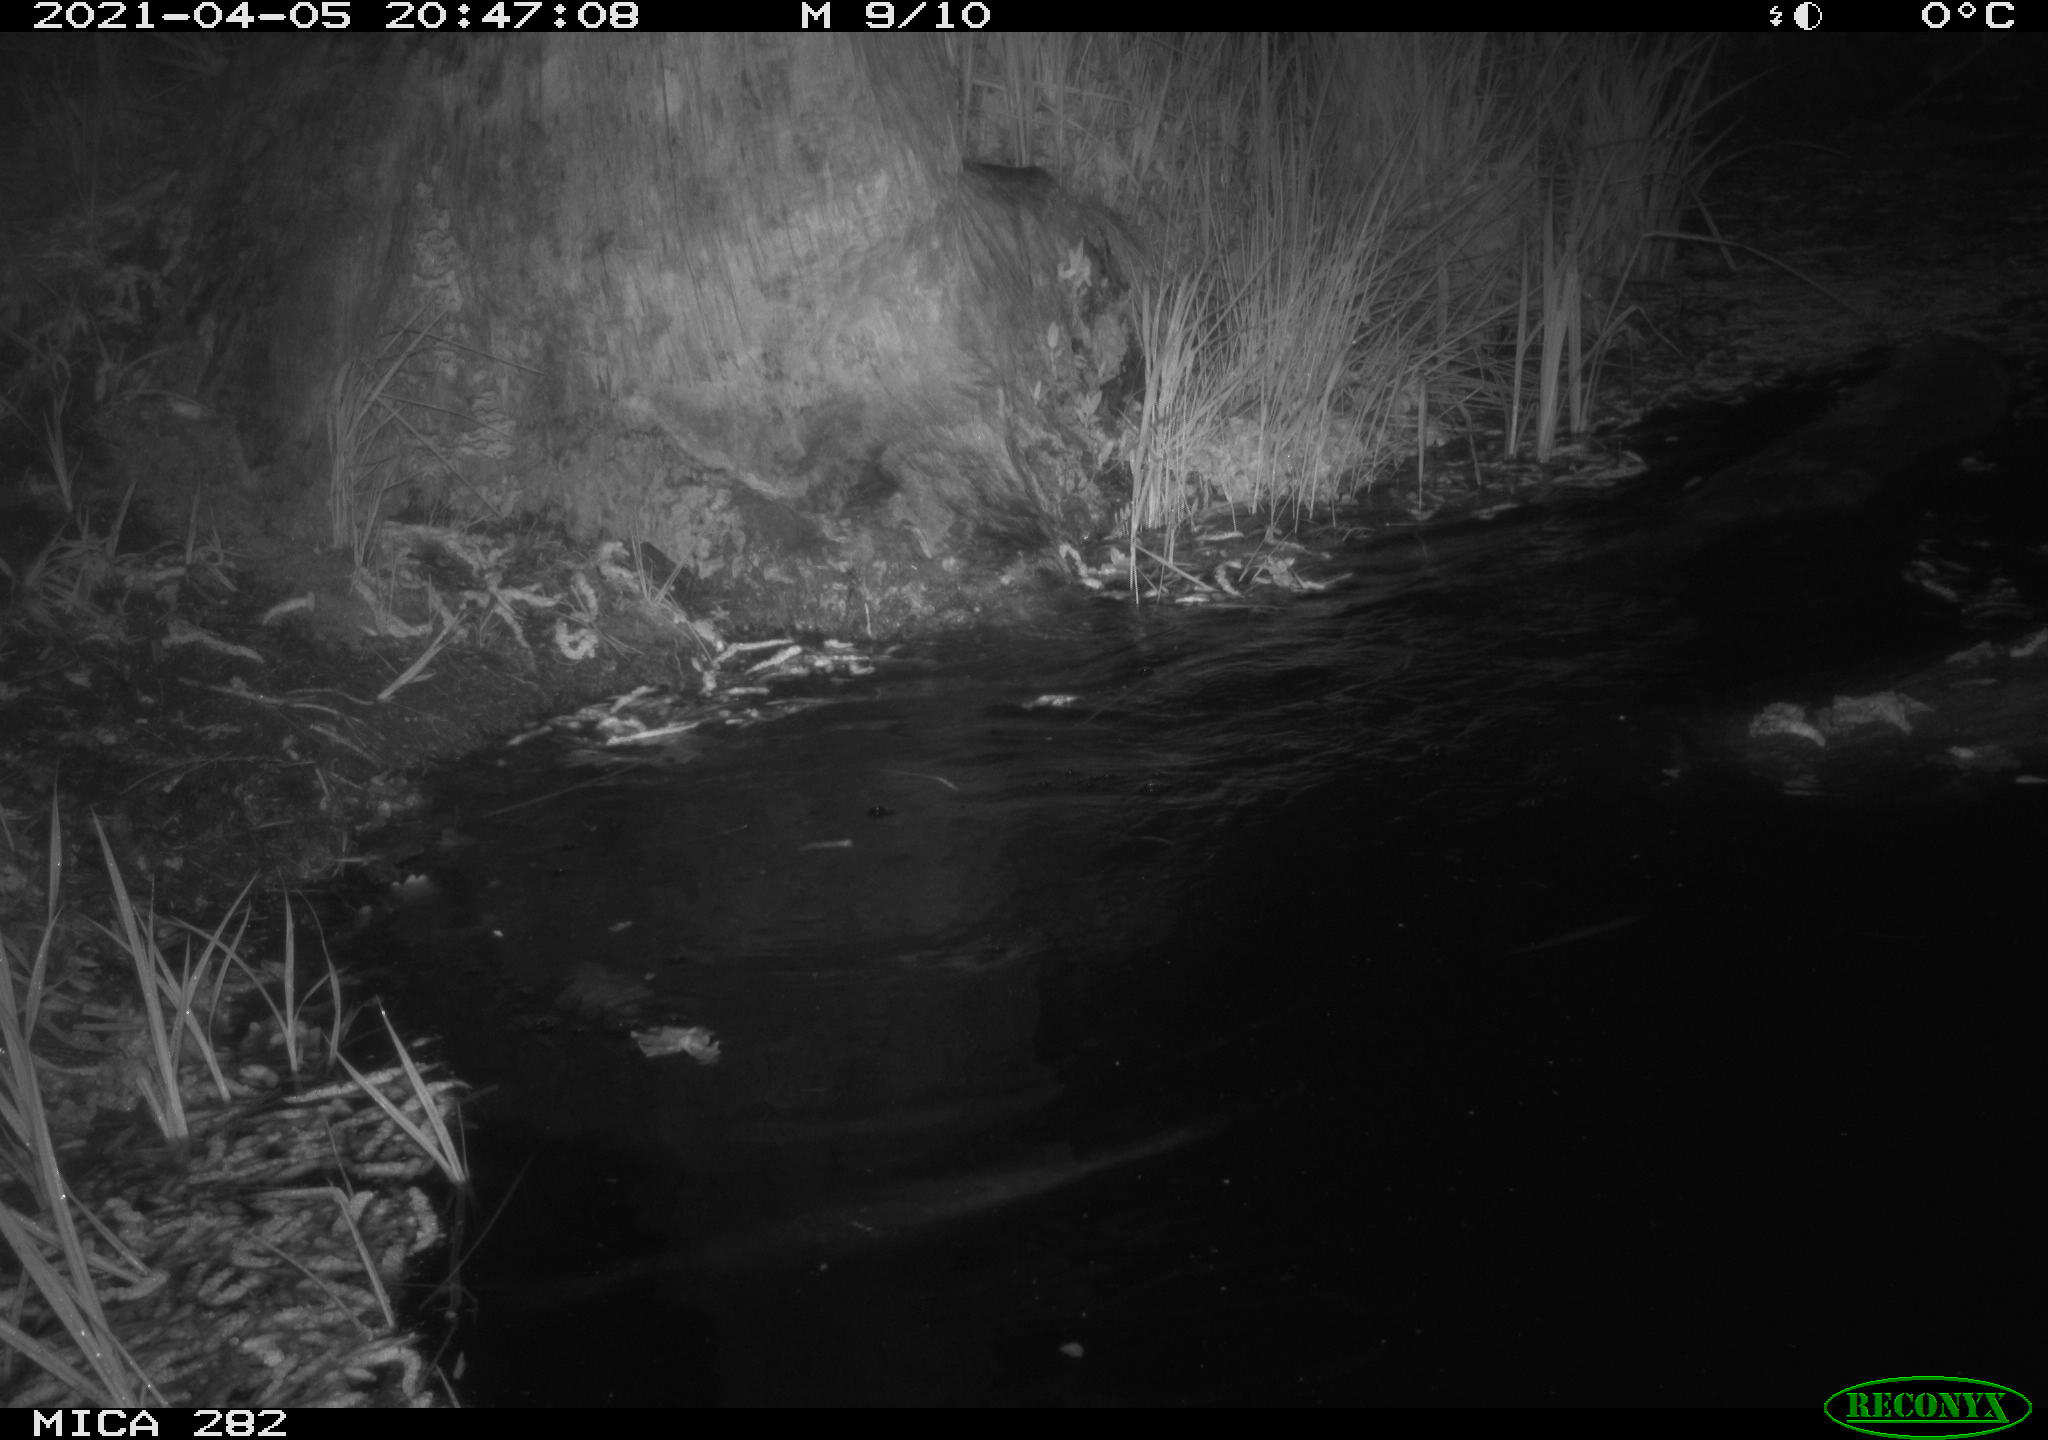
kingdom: Animalia
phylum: Chordata
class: Mammalia
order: Rodentia
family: Castoridae
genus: Castor
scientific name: Castor fiber
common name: Eurasian beaver
